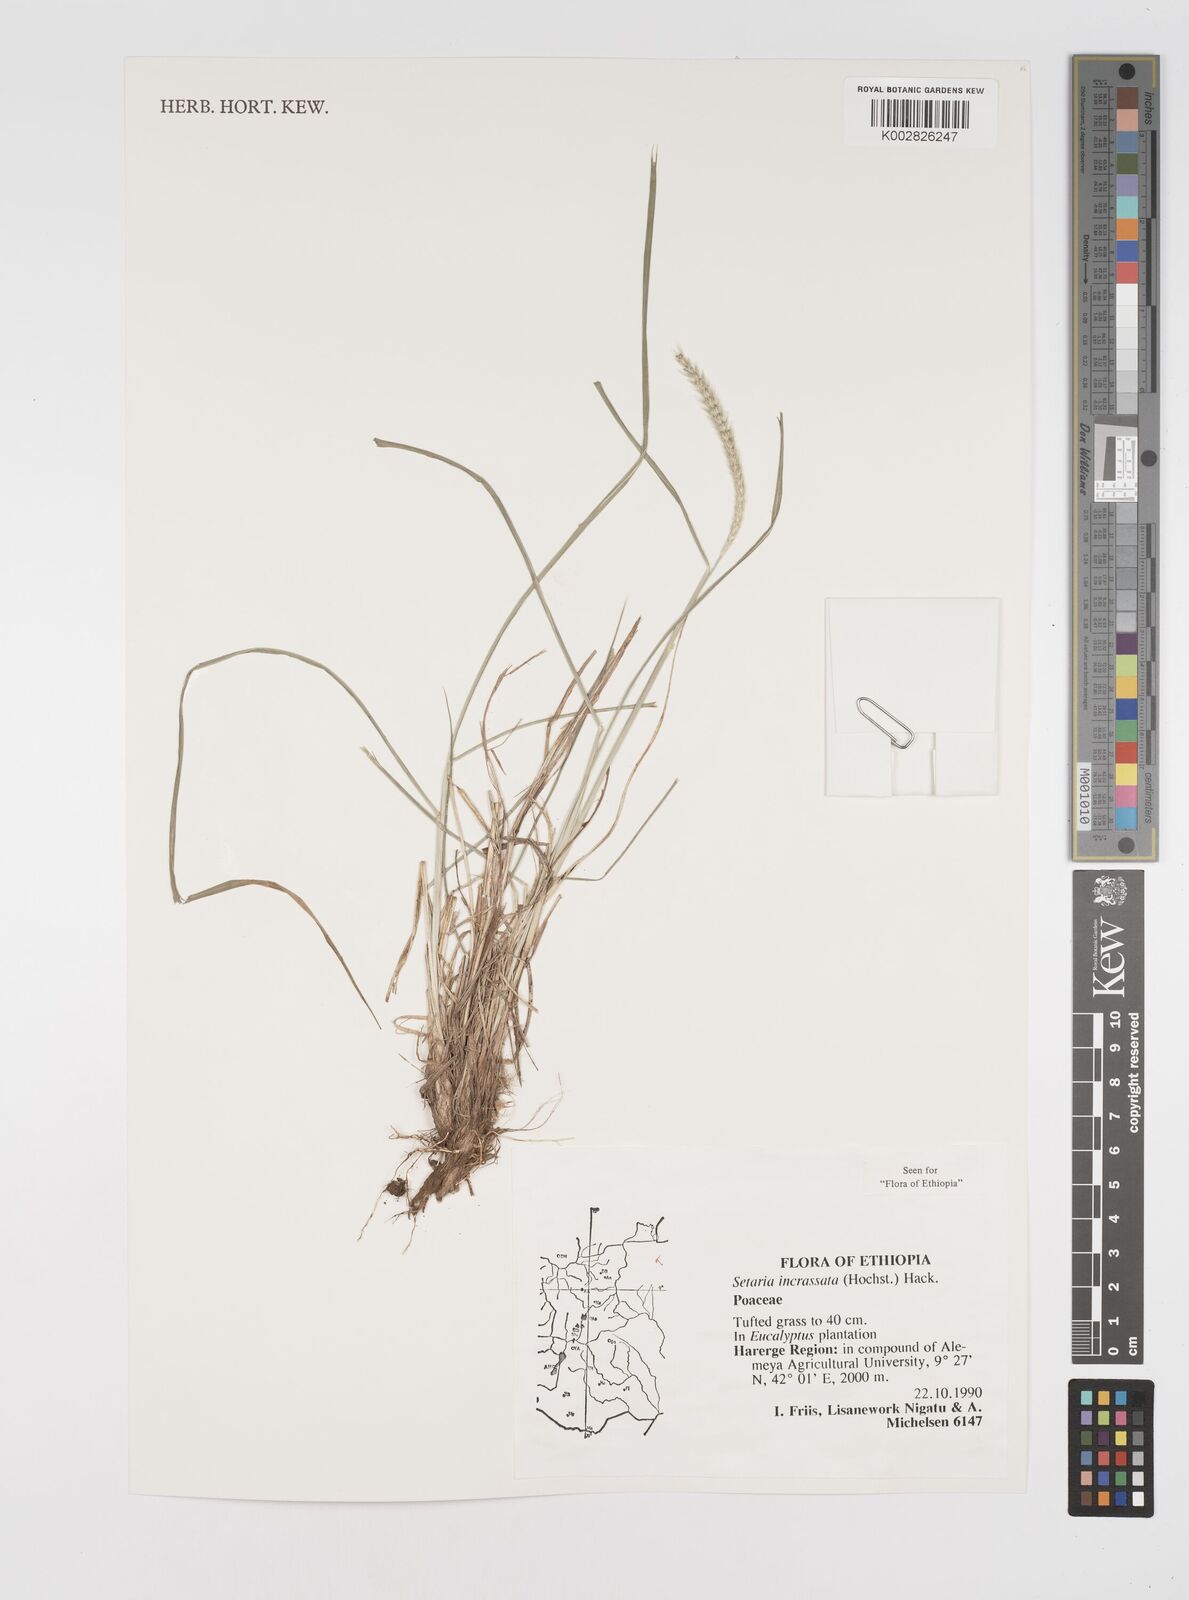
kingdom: Plantae
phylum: Tracheophyta
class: Liliopsida
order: Poales
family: Poaceae
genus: Setaria
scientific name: Setaria incrassata
